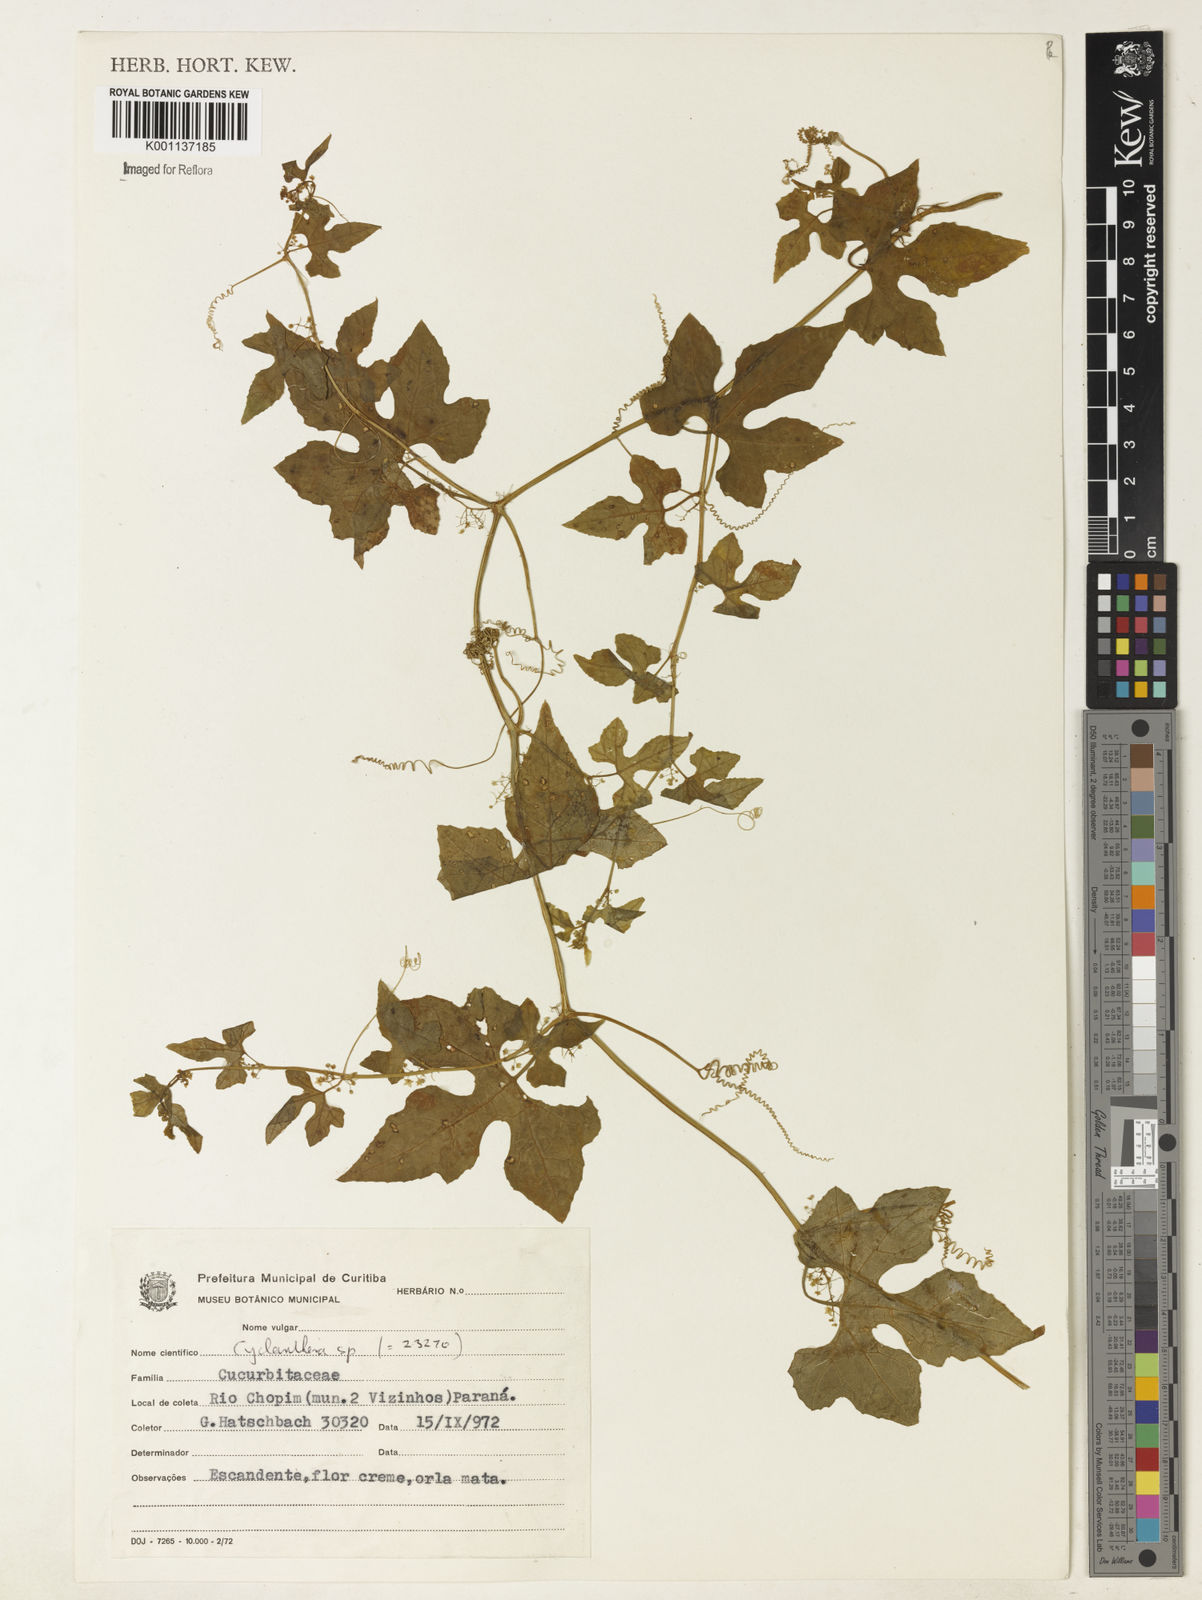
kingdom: Plantae
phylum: Tracheophyta
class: Magnoliopsida
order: Cucurbitales
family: Cucurbitaceae
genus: Cyclanthera
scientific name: Cyclanthera hystrix
